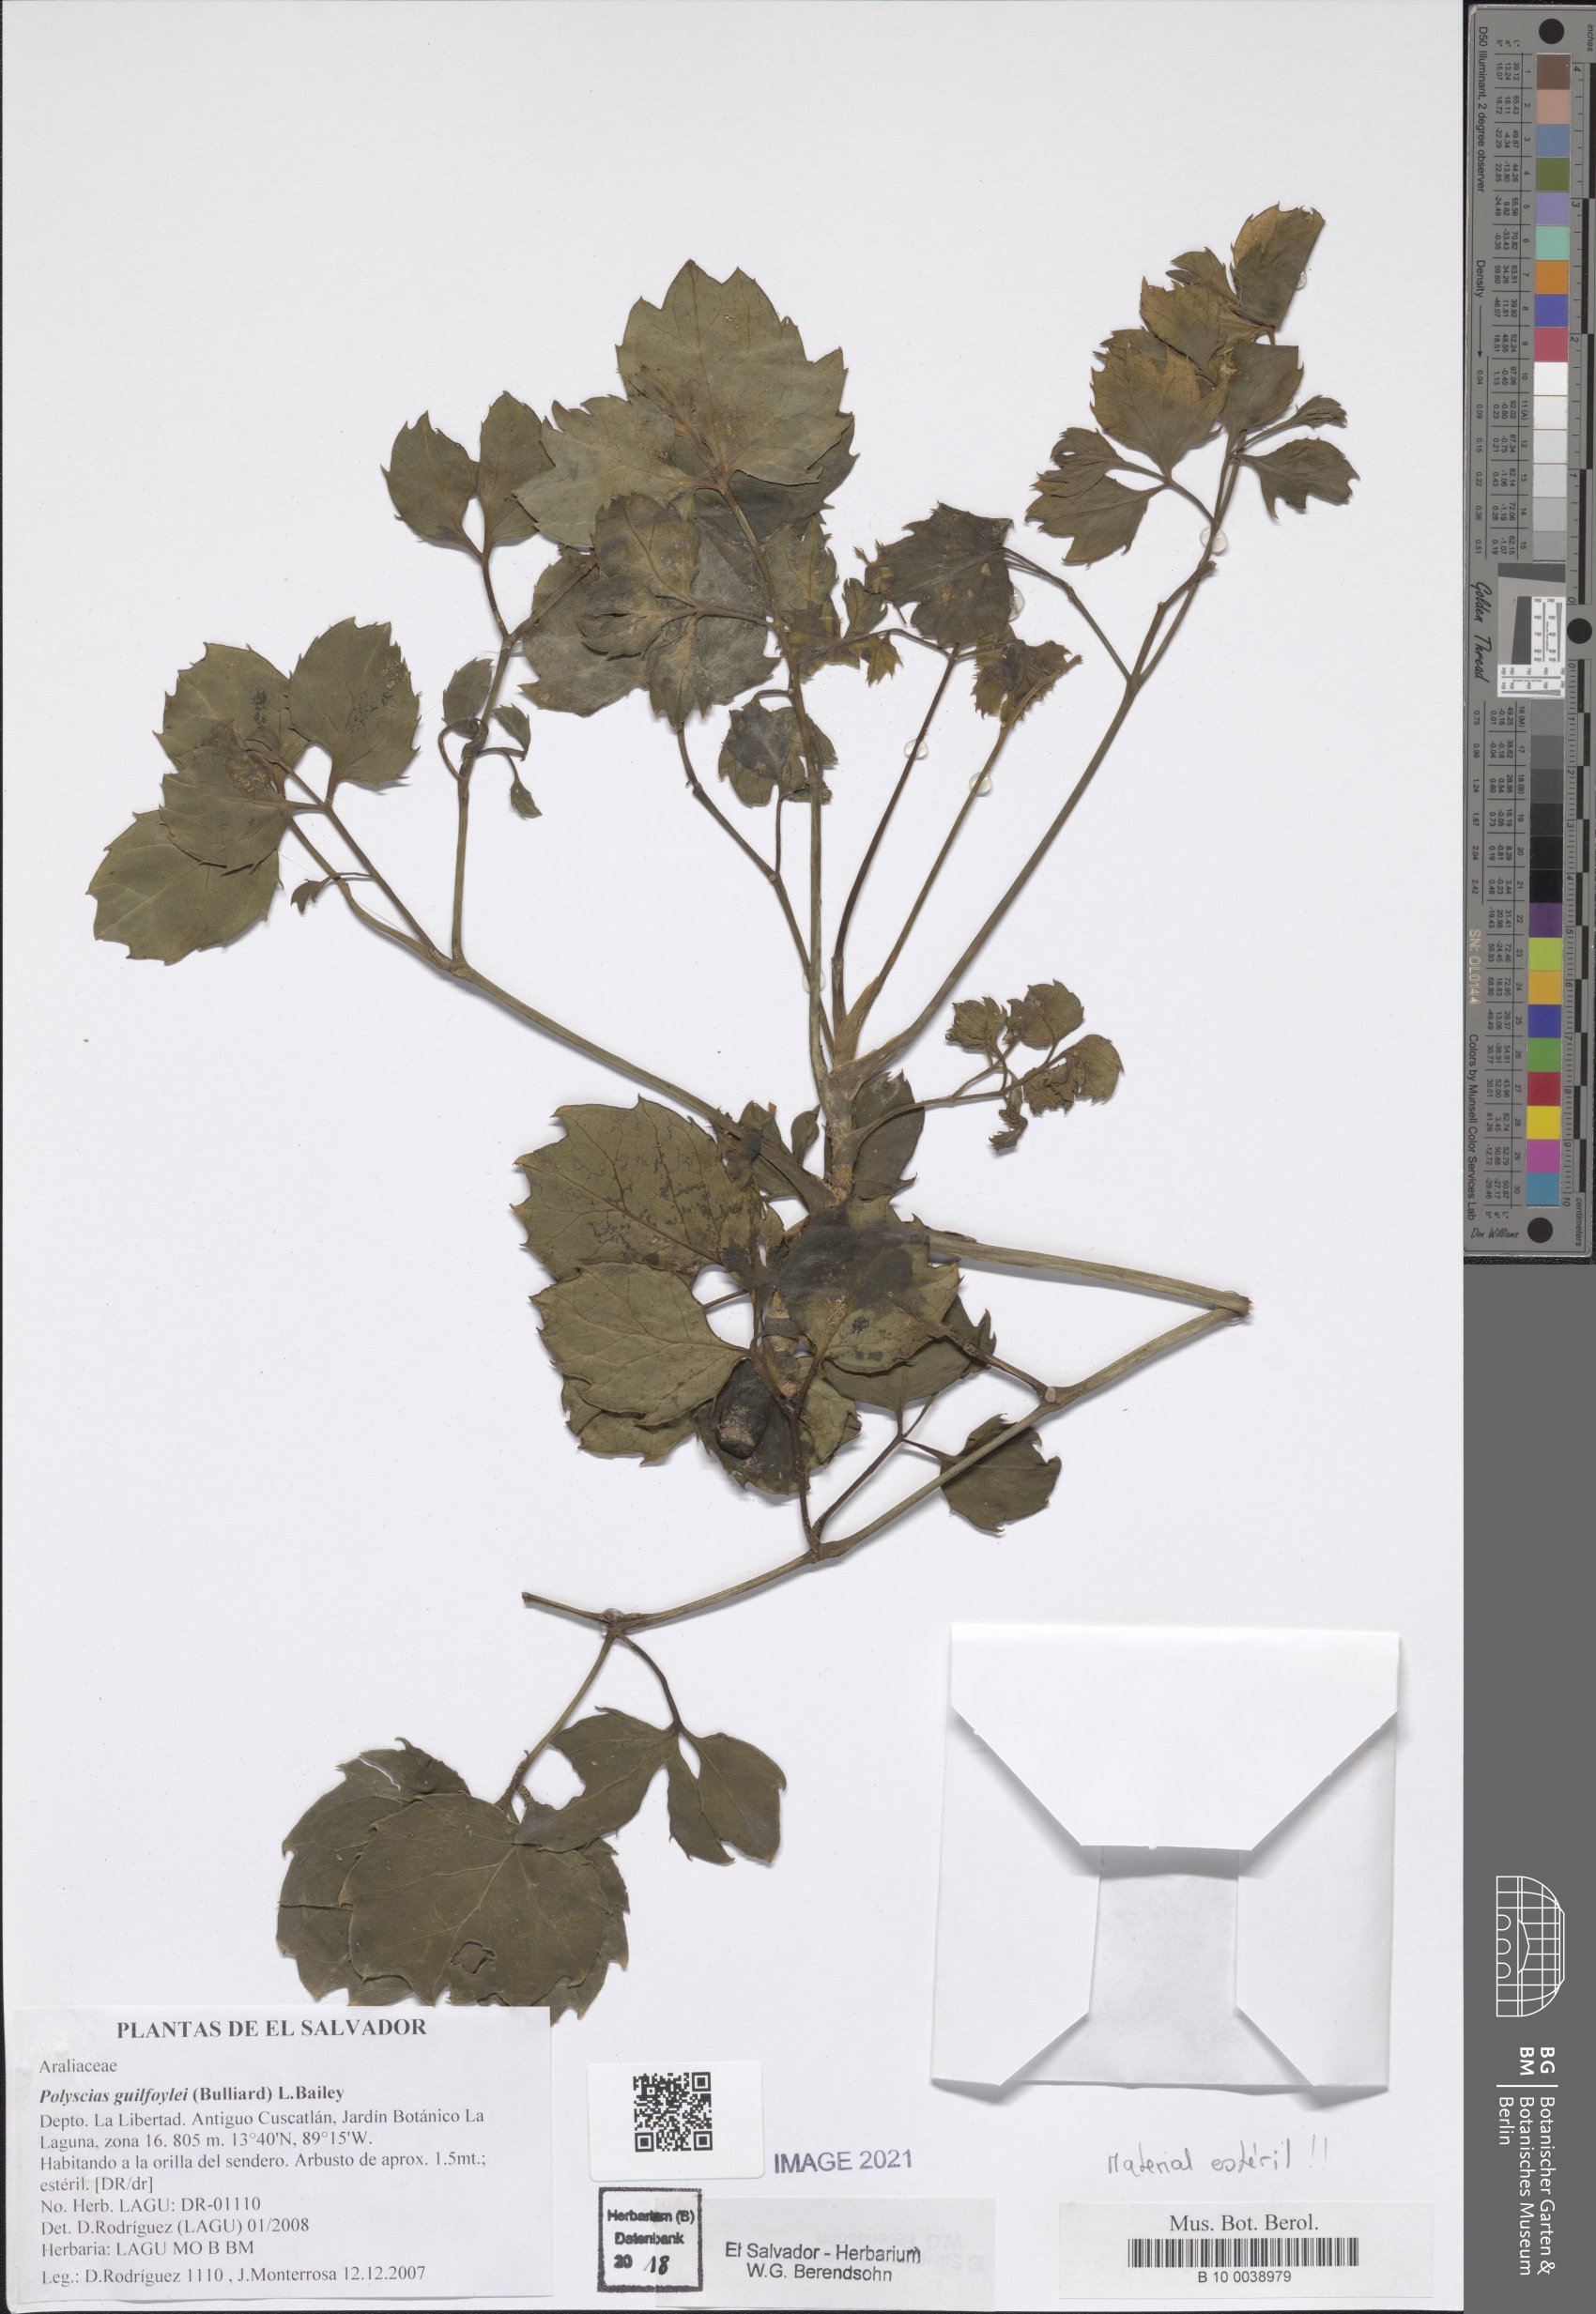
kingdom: Plantae
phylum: Tracheophyta
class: Magnoliopsida
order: Apiales
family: Araliaceae
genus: Polyscias
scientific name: Polyscias guilfoylei
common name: Geranium aralia
